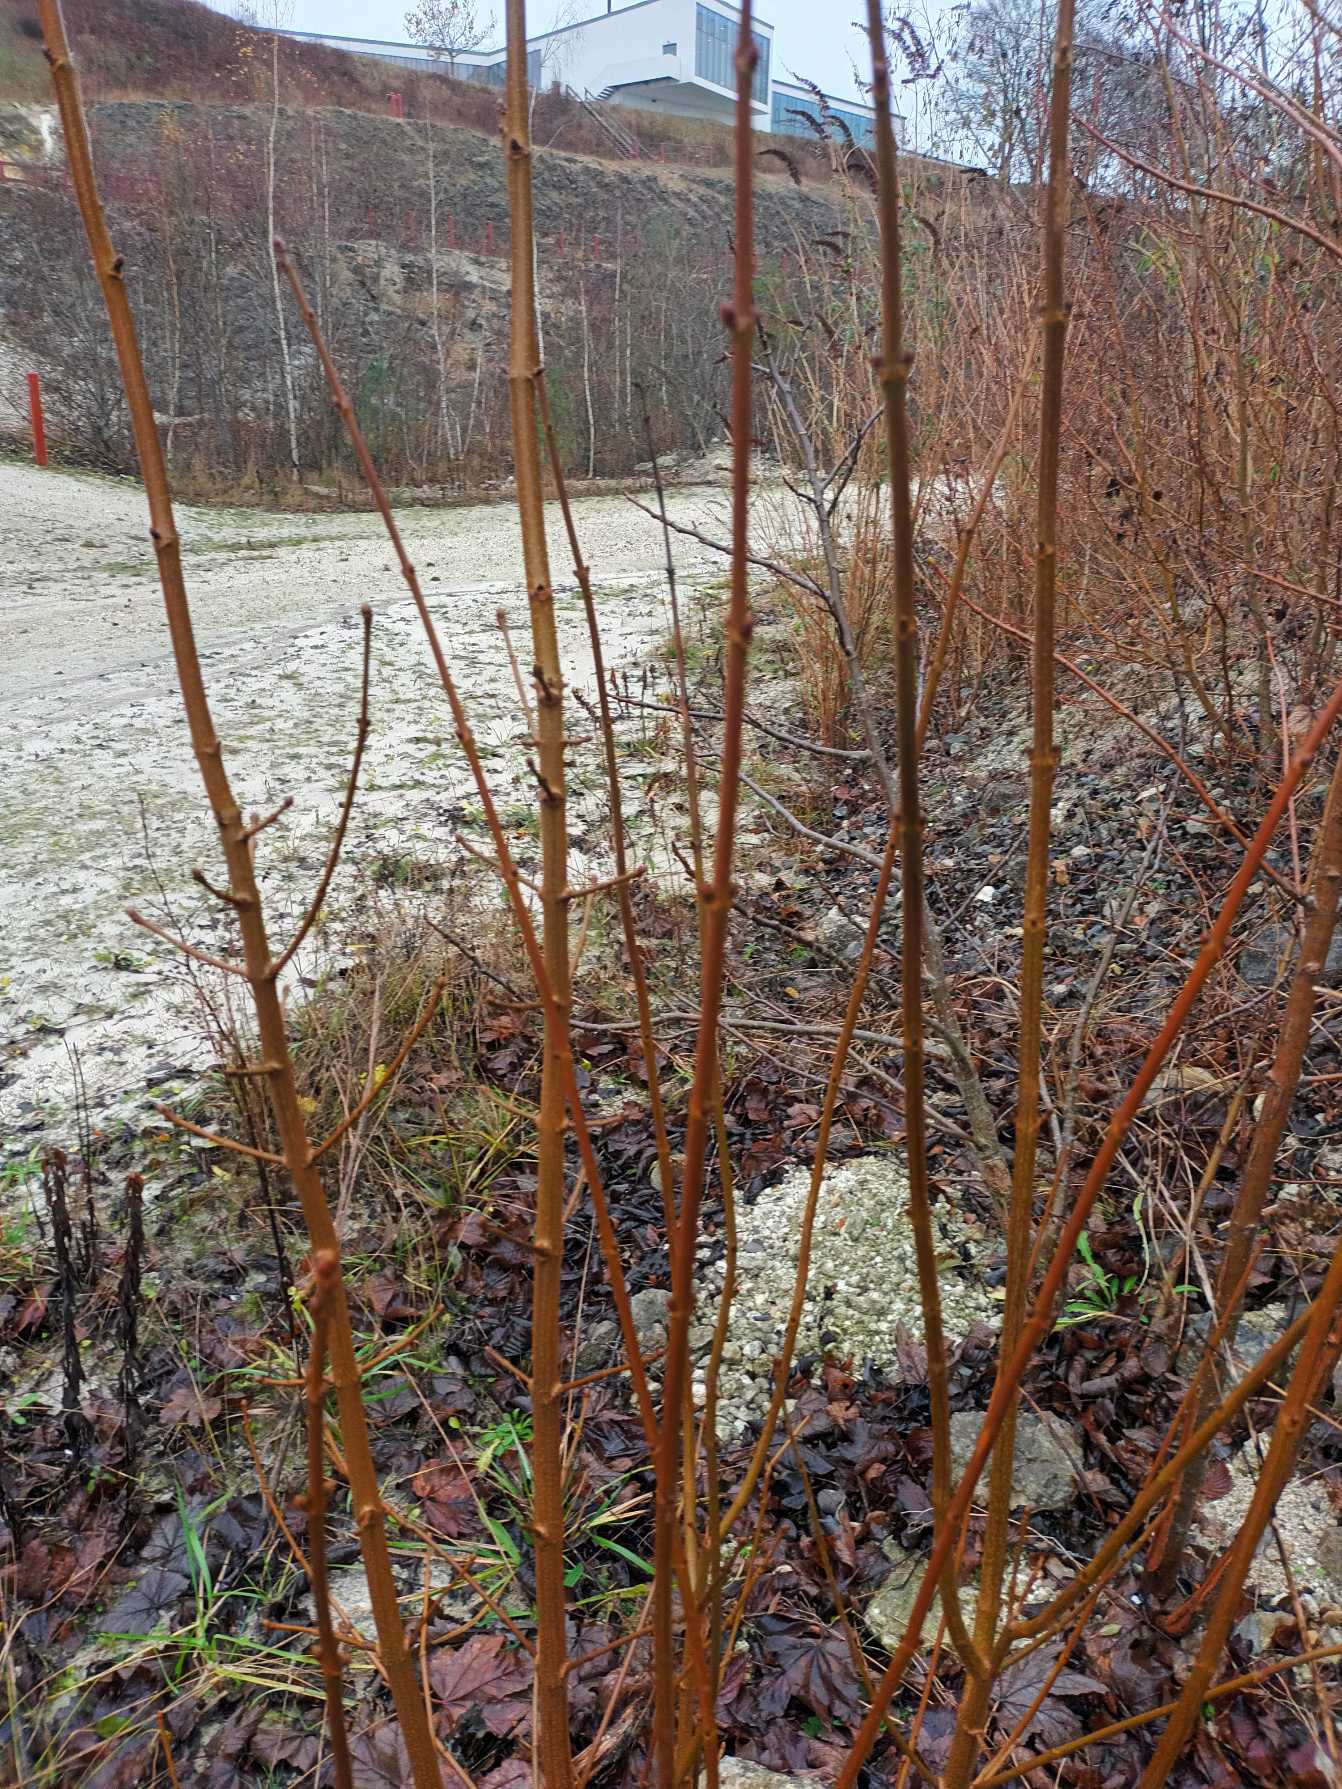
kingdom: Plantae
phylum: Tracheophyta
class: Magnoliopsida
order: Sapindales
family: Sapindaceae
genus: Acer
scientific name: Acer campestre
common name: Navr
